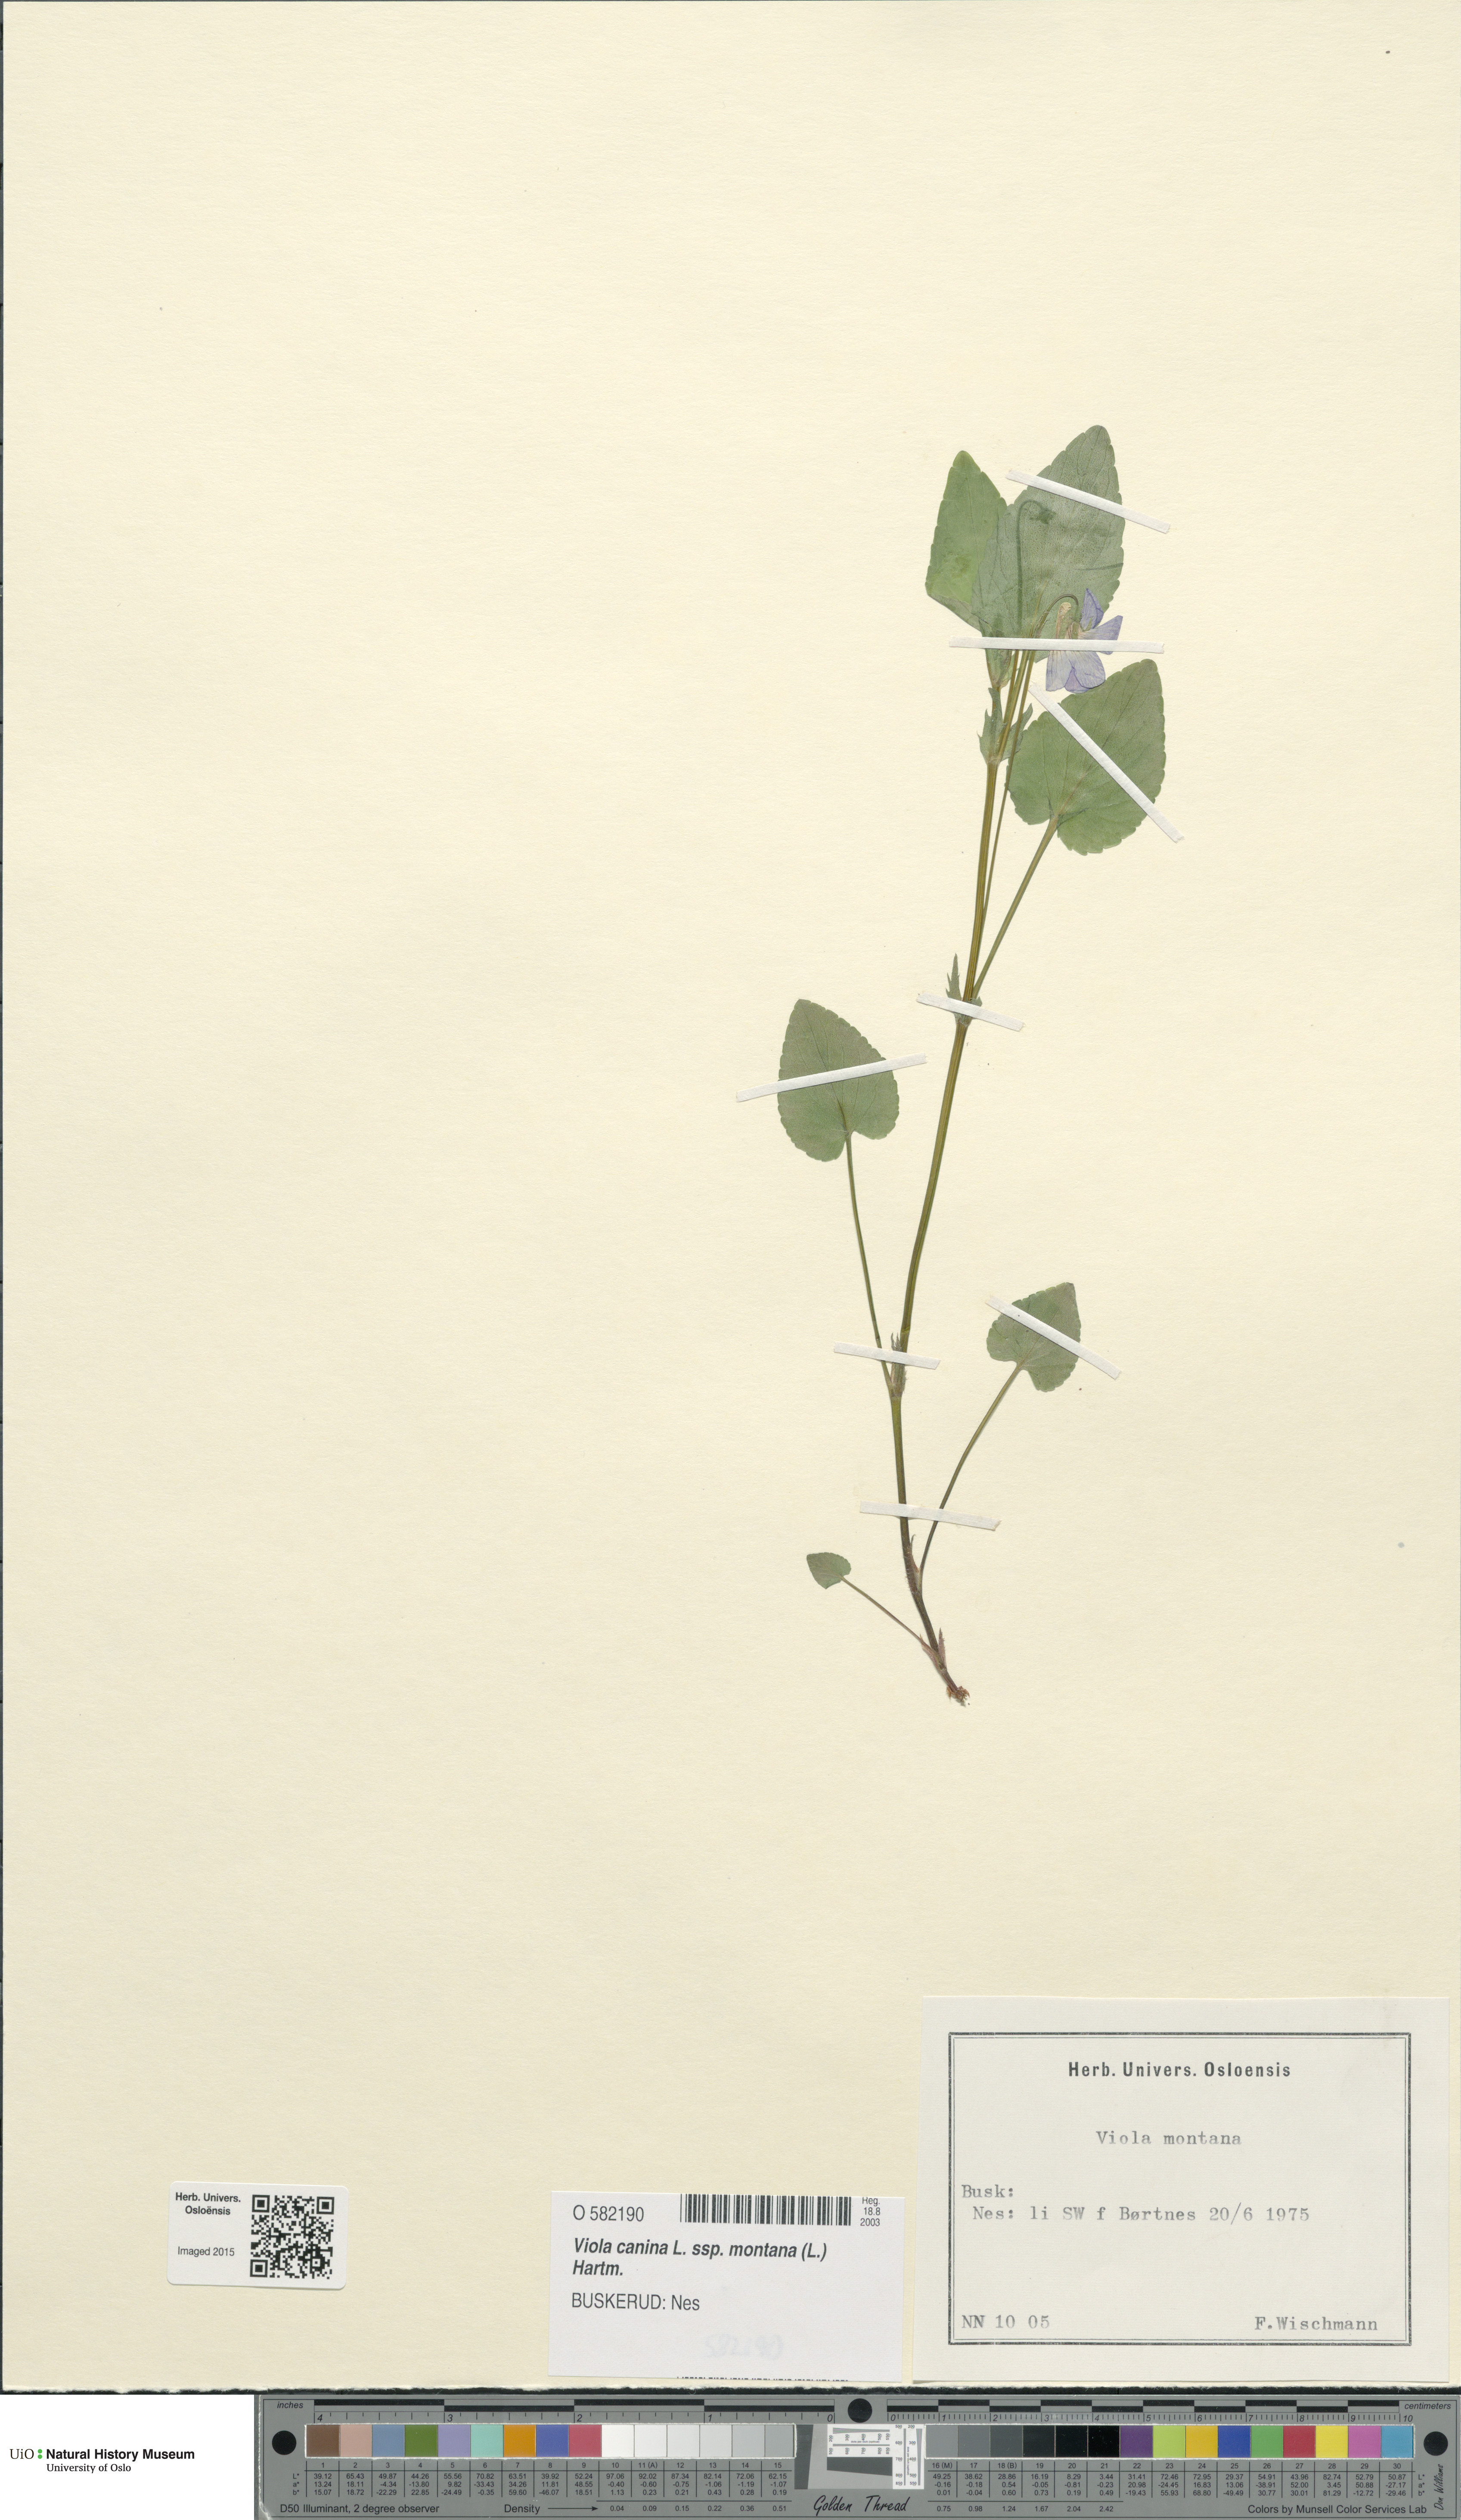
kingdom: Plantae
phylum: Tracheophyta
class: Magnoliopsida
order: Malpighiales
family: Violaceae
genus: Viola
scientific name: Viola ruppii
